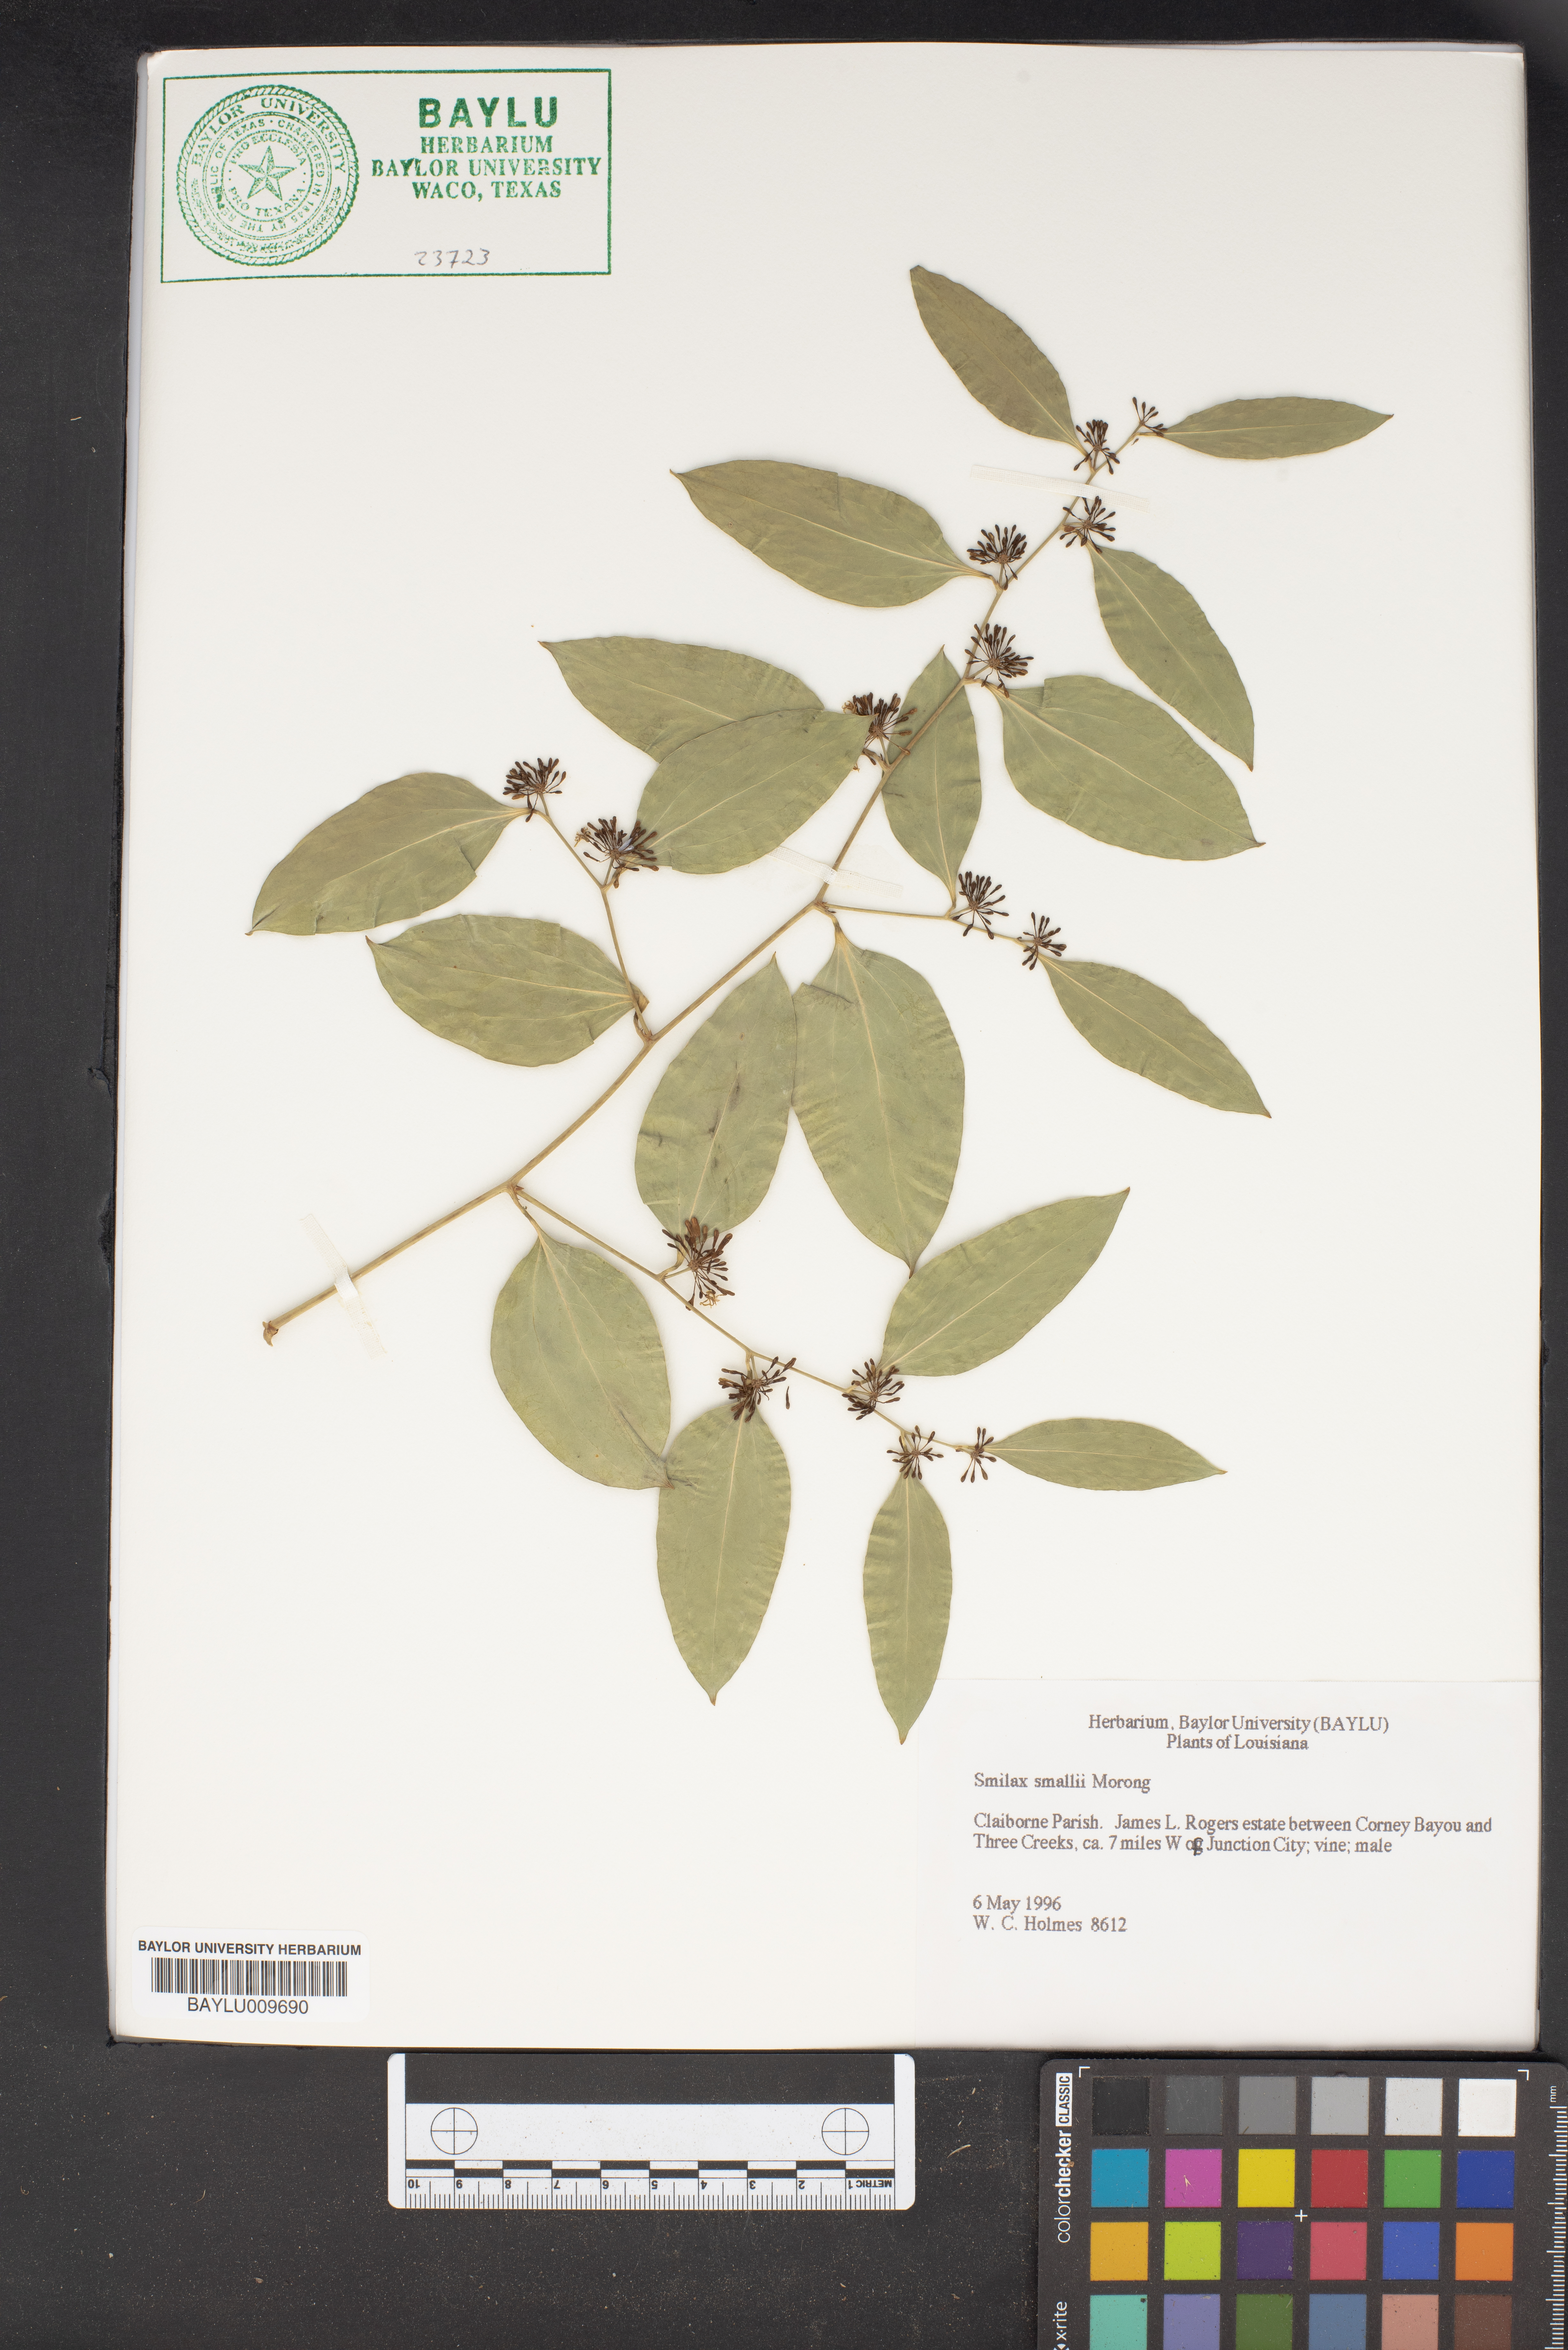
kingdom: Plantae
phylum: Tracheophyta
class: Liliopsida
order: Liliales
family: Smilacaceae
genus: Smilax
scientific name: Smilax maritima
